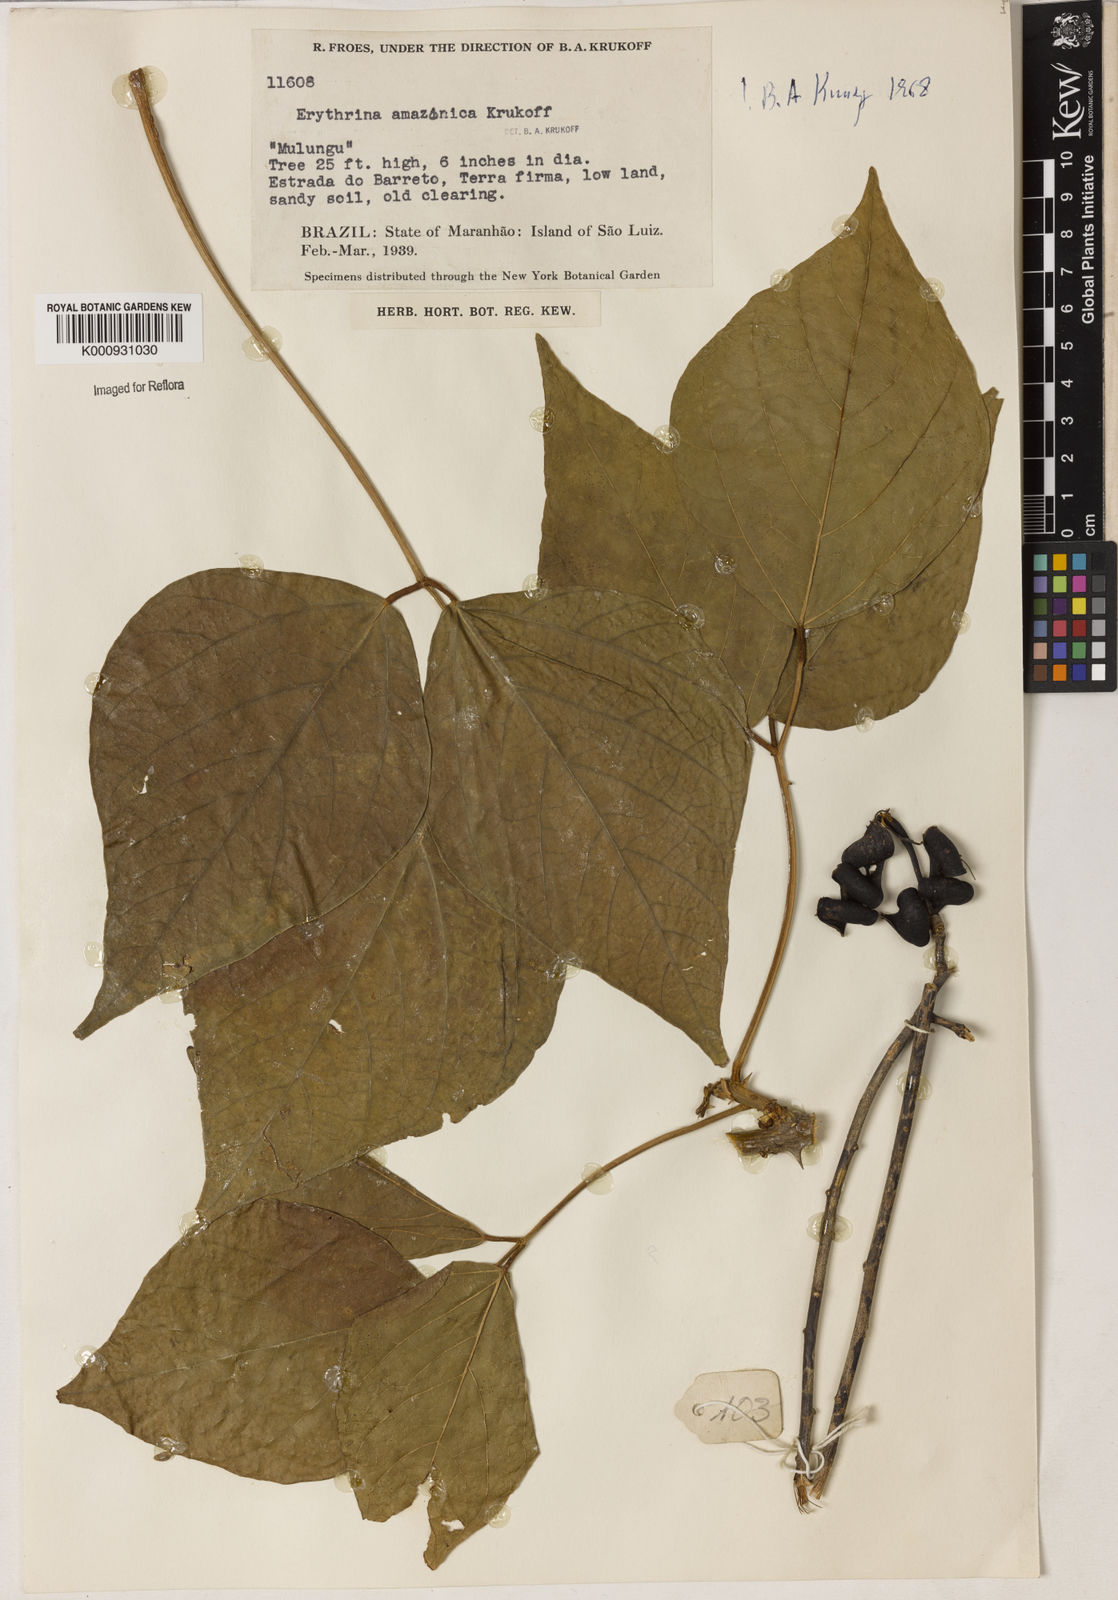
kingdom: Plantae
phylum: Tracheophyta
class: Magnoliopsida
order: Fabales
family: Fabaceae
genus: Erythrina
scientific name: Erythrina amazonica
